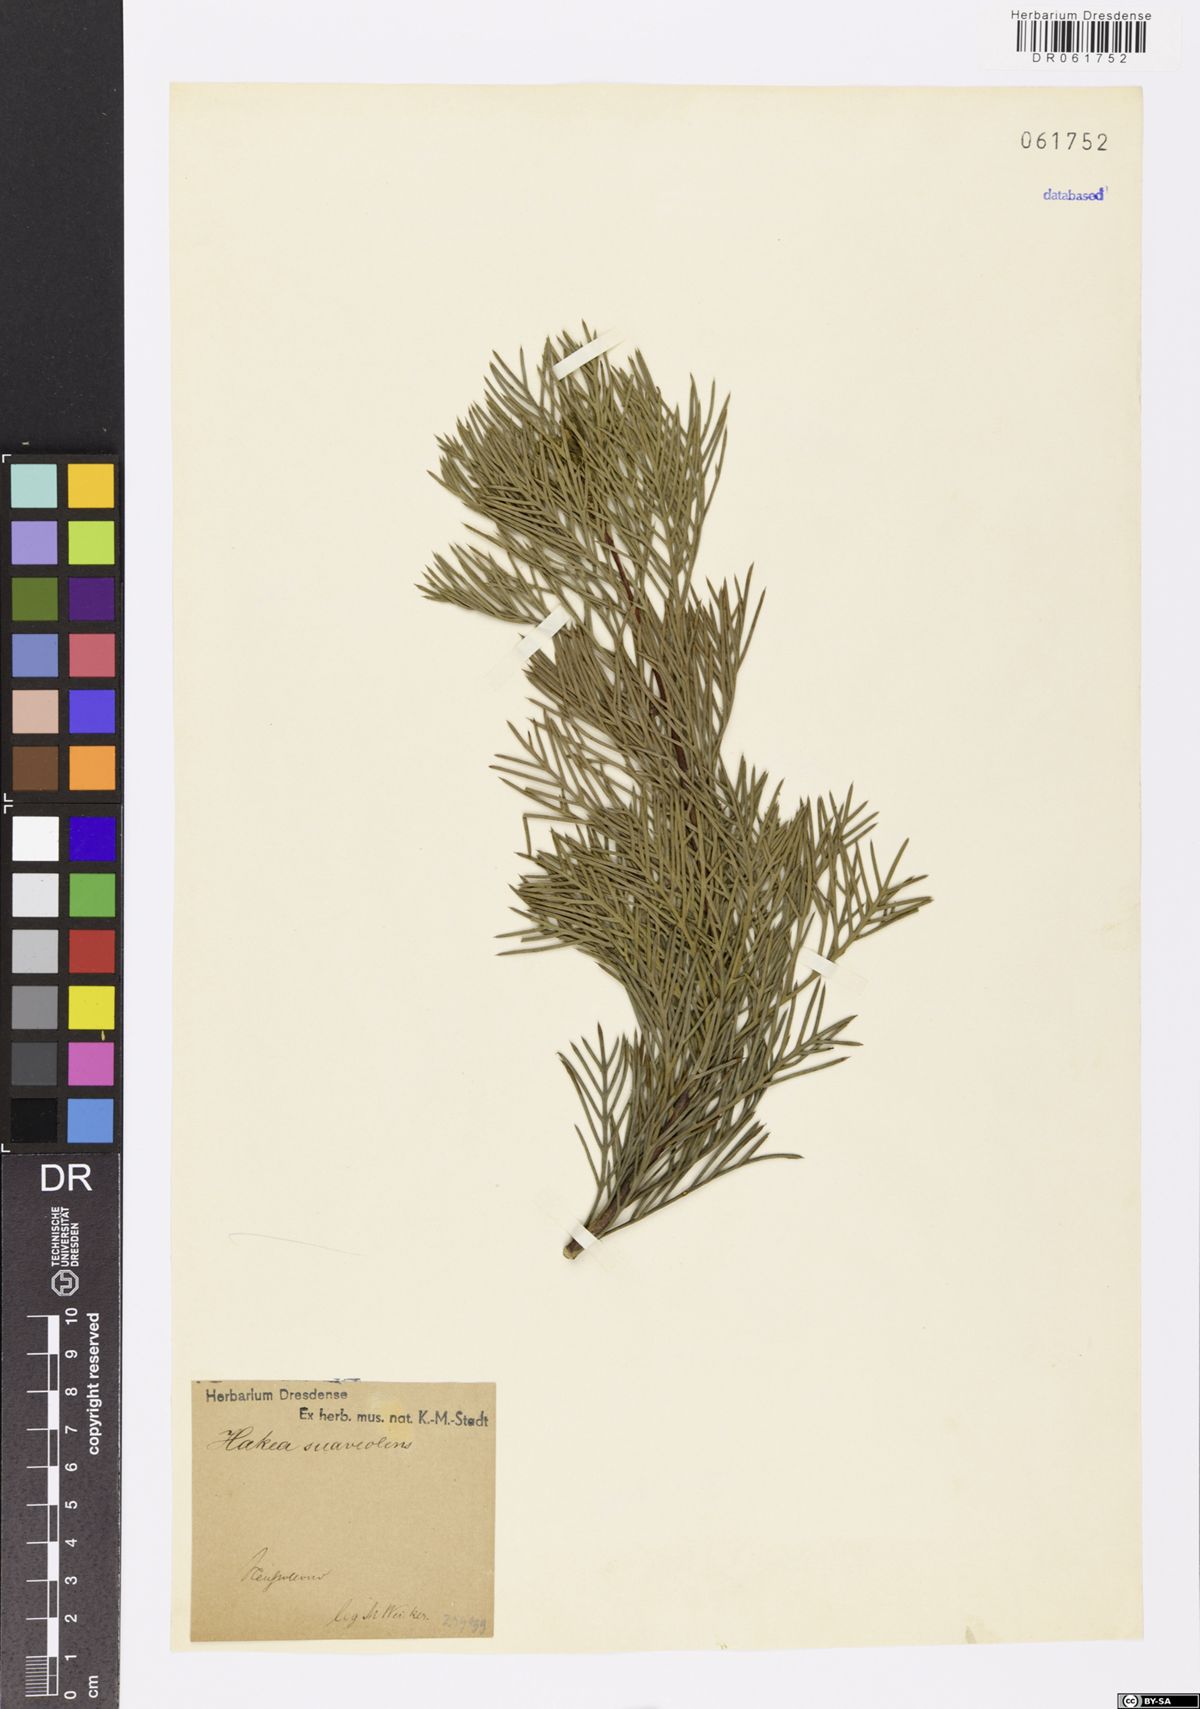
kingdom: Plantae
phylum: Tracheophyta
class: Magnoliopsida
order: Proteales
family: Proteaceae
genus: Hakea
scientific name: Hakea drupacea
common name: Sweet hakea
